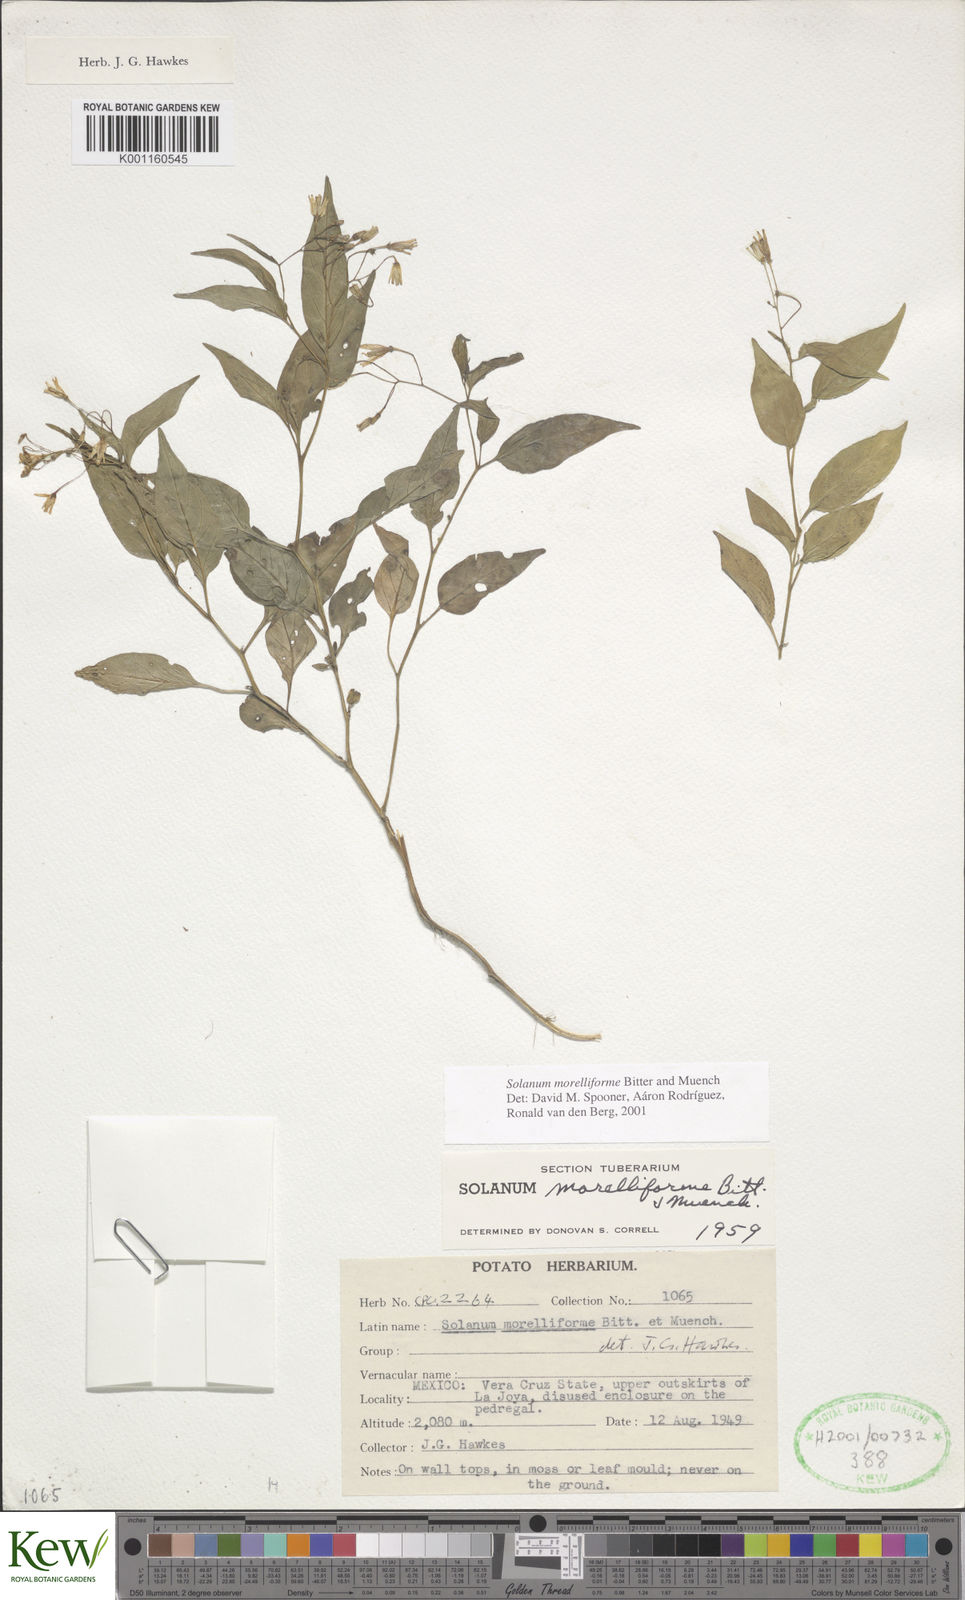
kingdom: Plantae
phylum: Tracheophyta
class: Magnoliopsida
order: Solanales
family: Solanaceae
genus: Solanum
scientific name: Solanum
